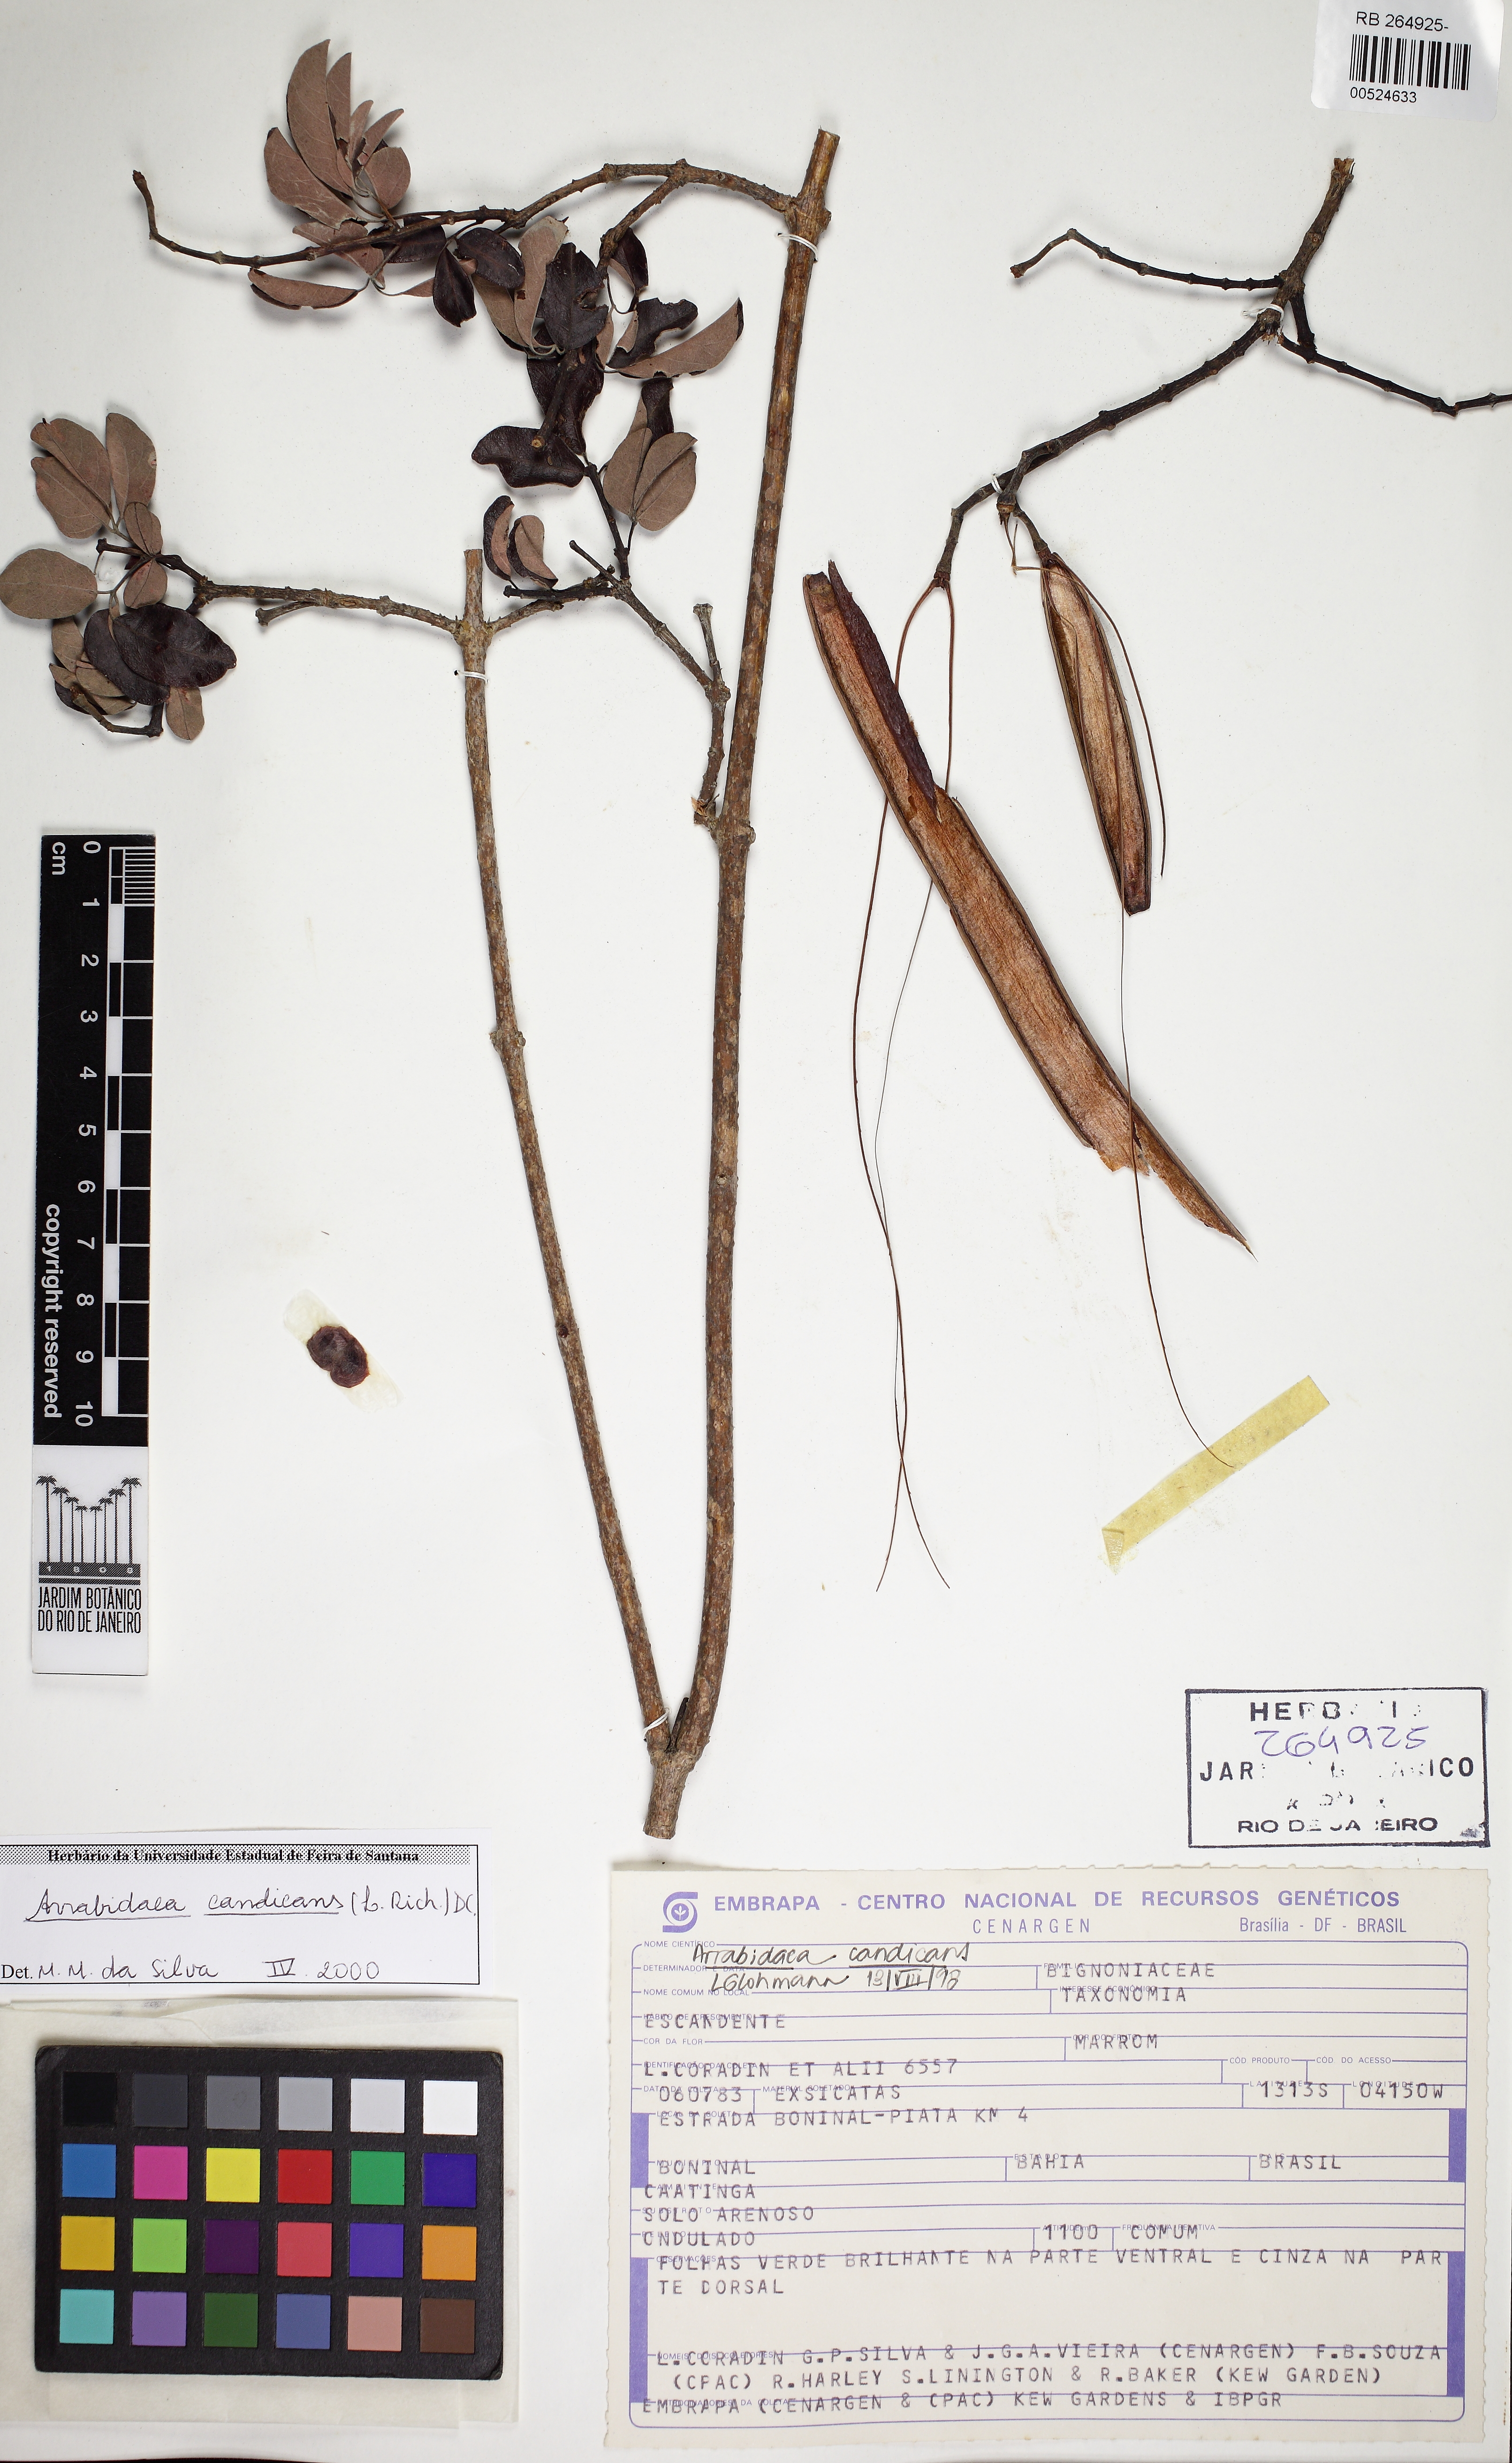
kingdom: Plantae
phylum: Tracheophyta
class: Magnoliopsida
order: Lamiales
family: Bignoniaceae
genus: Fridericia
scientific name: Fridericia chica
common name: Cricketvine
